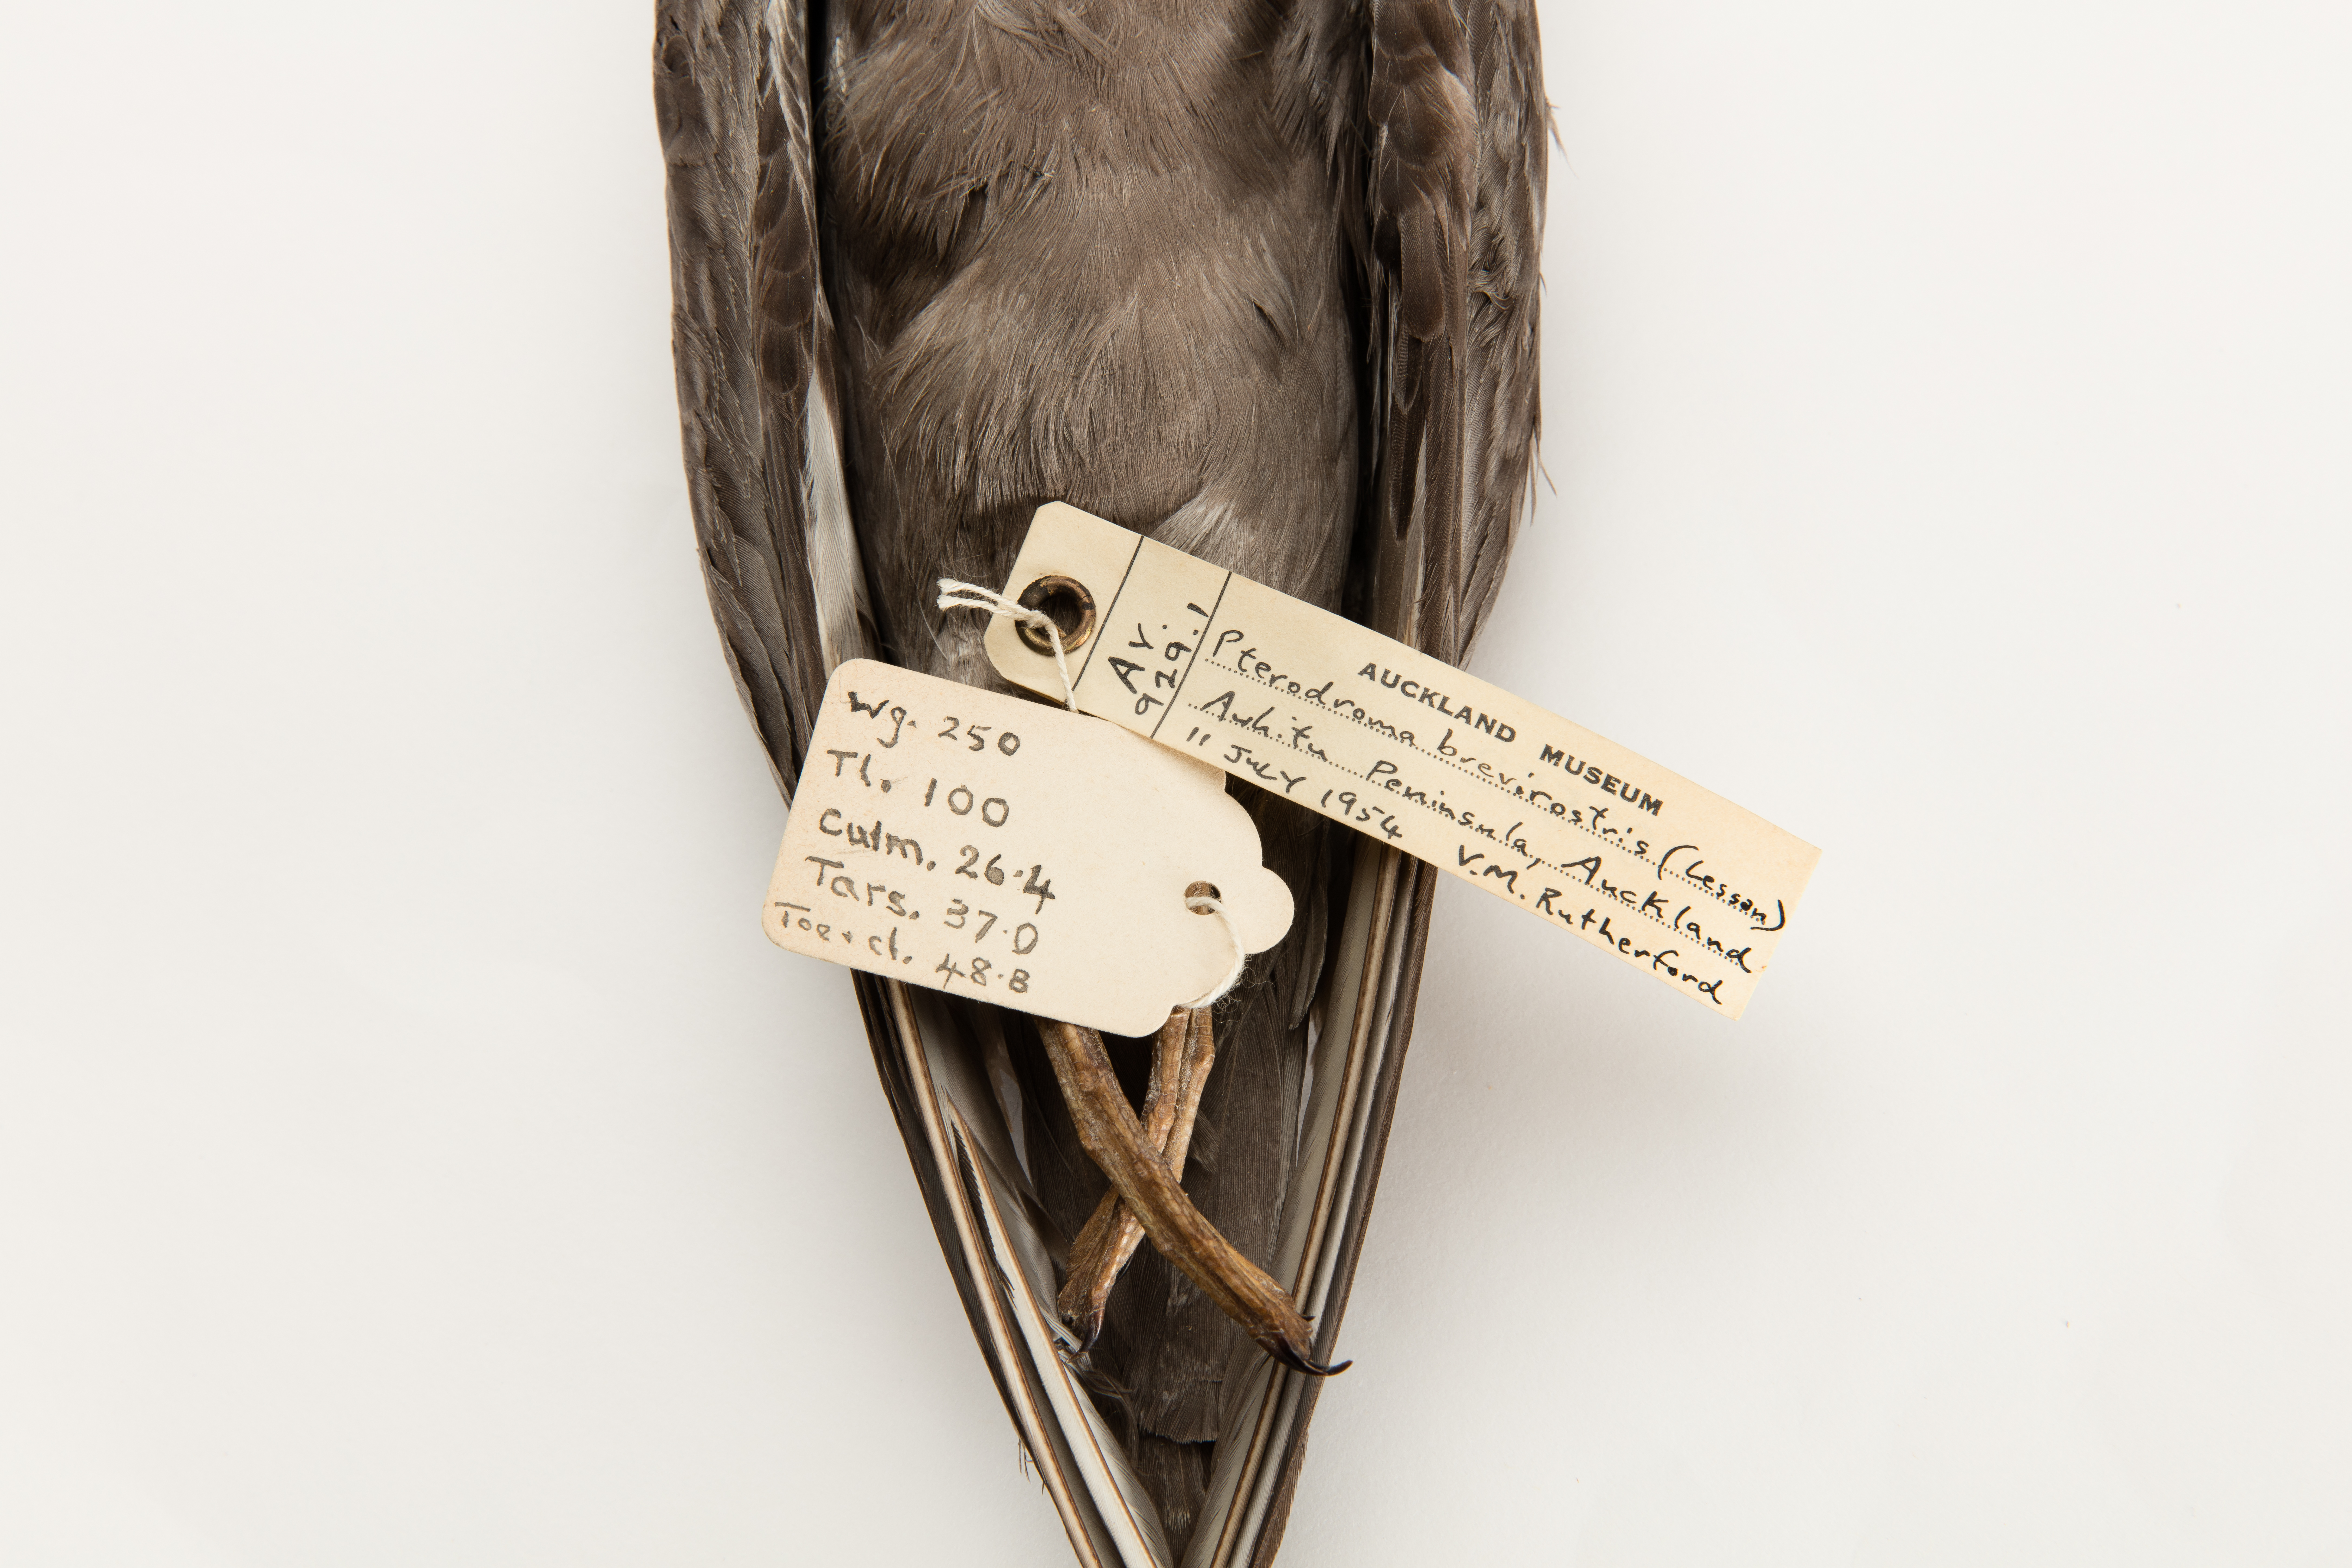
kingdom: Animalia
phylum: Chordata
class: Aves
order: Procellariiformes
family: Procellariidae
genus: Aphrodroma
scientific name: Aphrodroma brevirostris
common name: Kerguelen petrel
